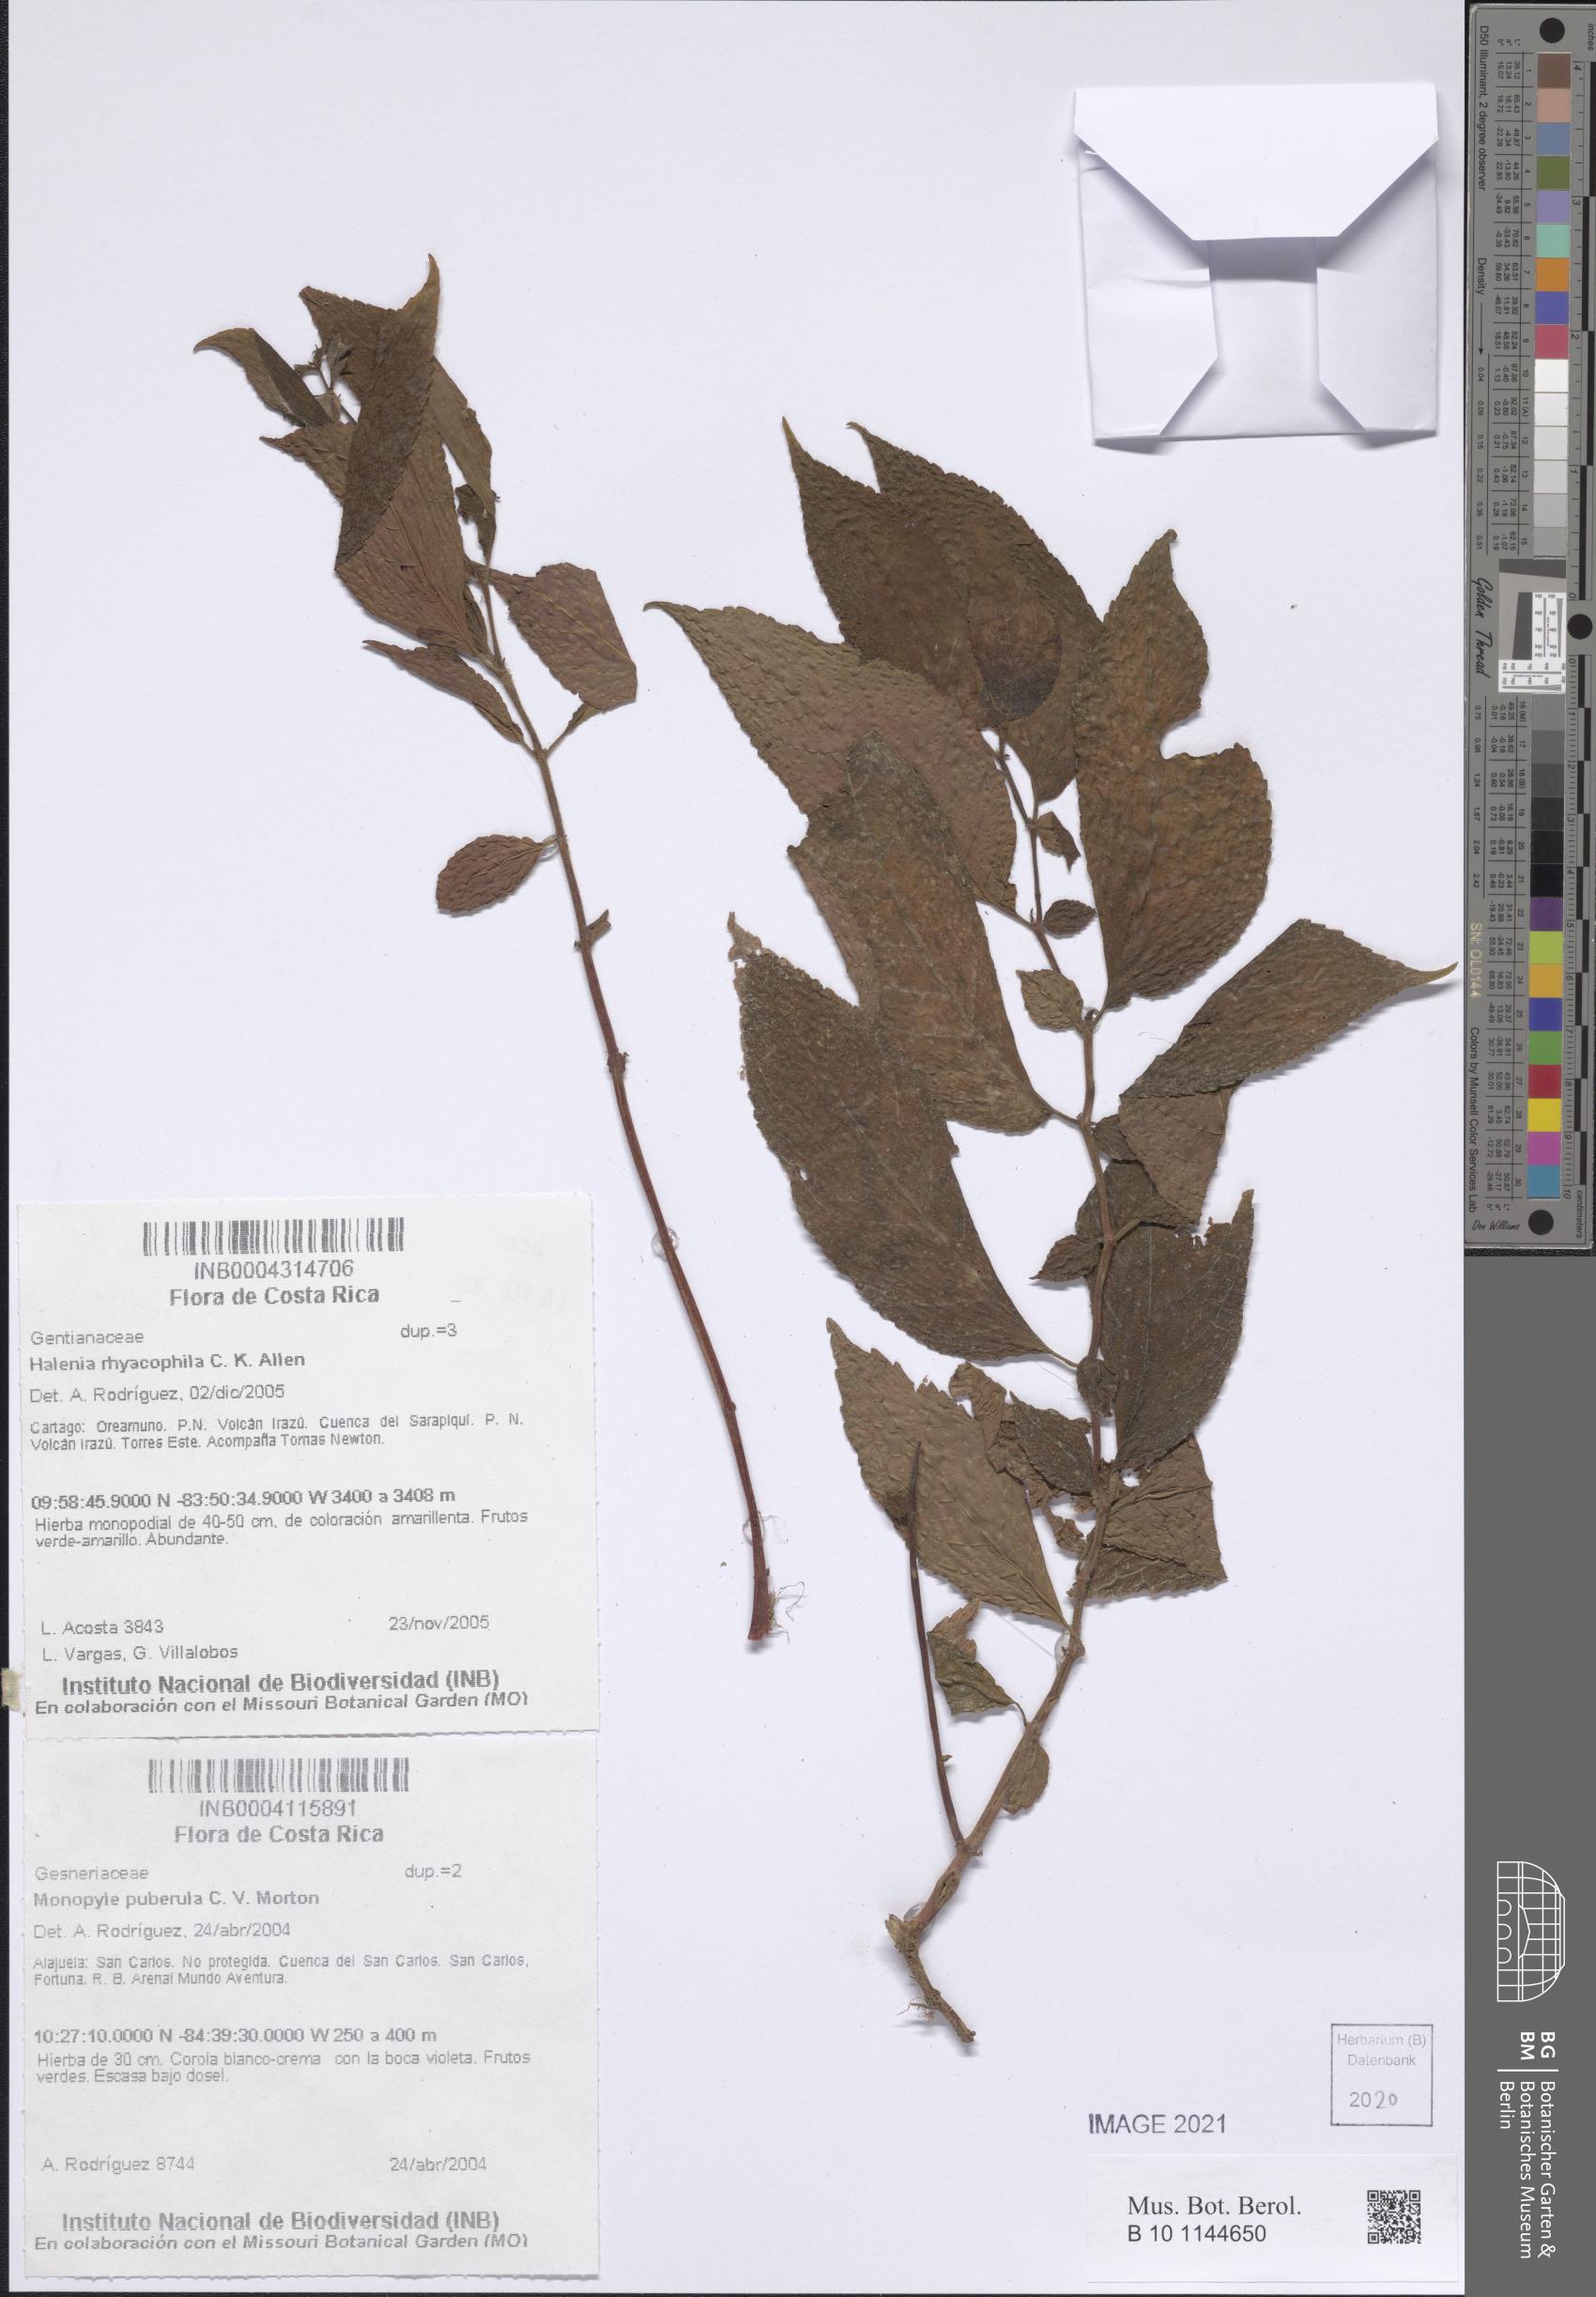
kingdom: Plantae
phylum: Tracheophyta
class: Magnoliopsida
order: Gentianales
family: Gentianaceae
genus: Halenia
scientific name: Halenia rhyacophila
